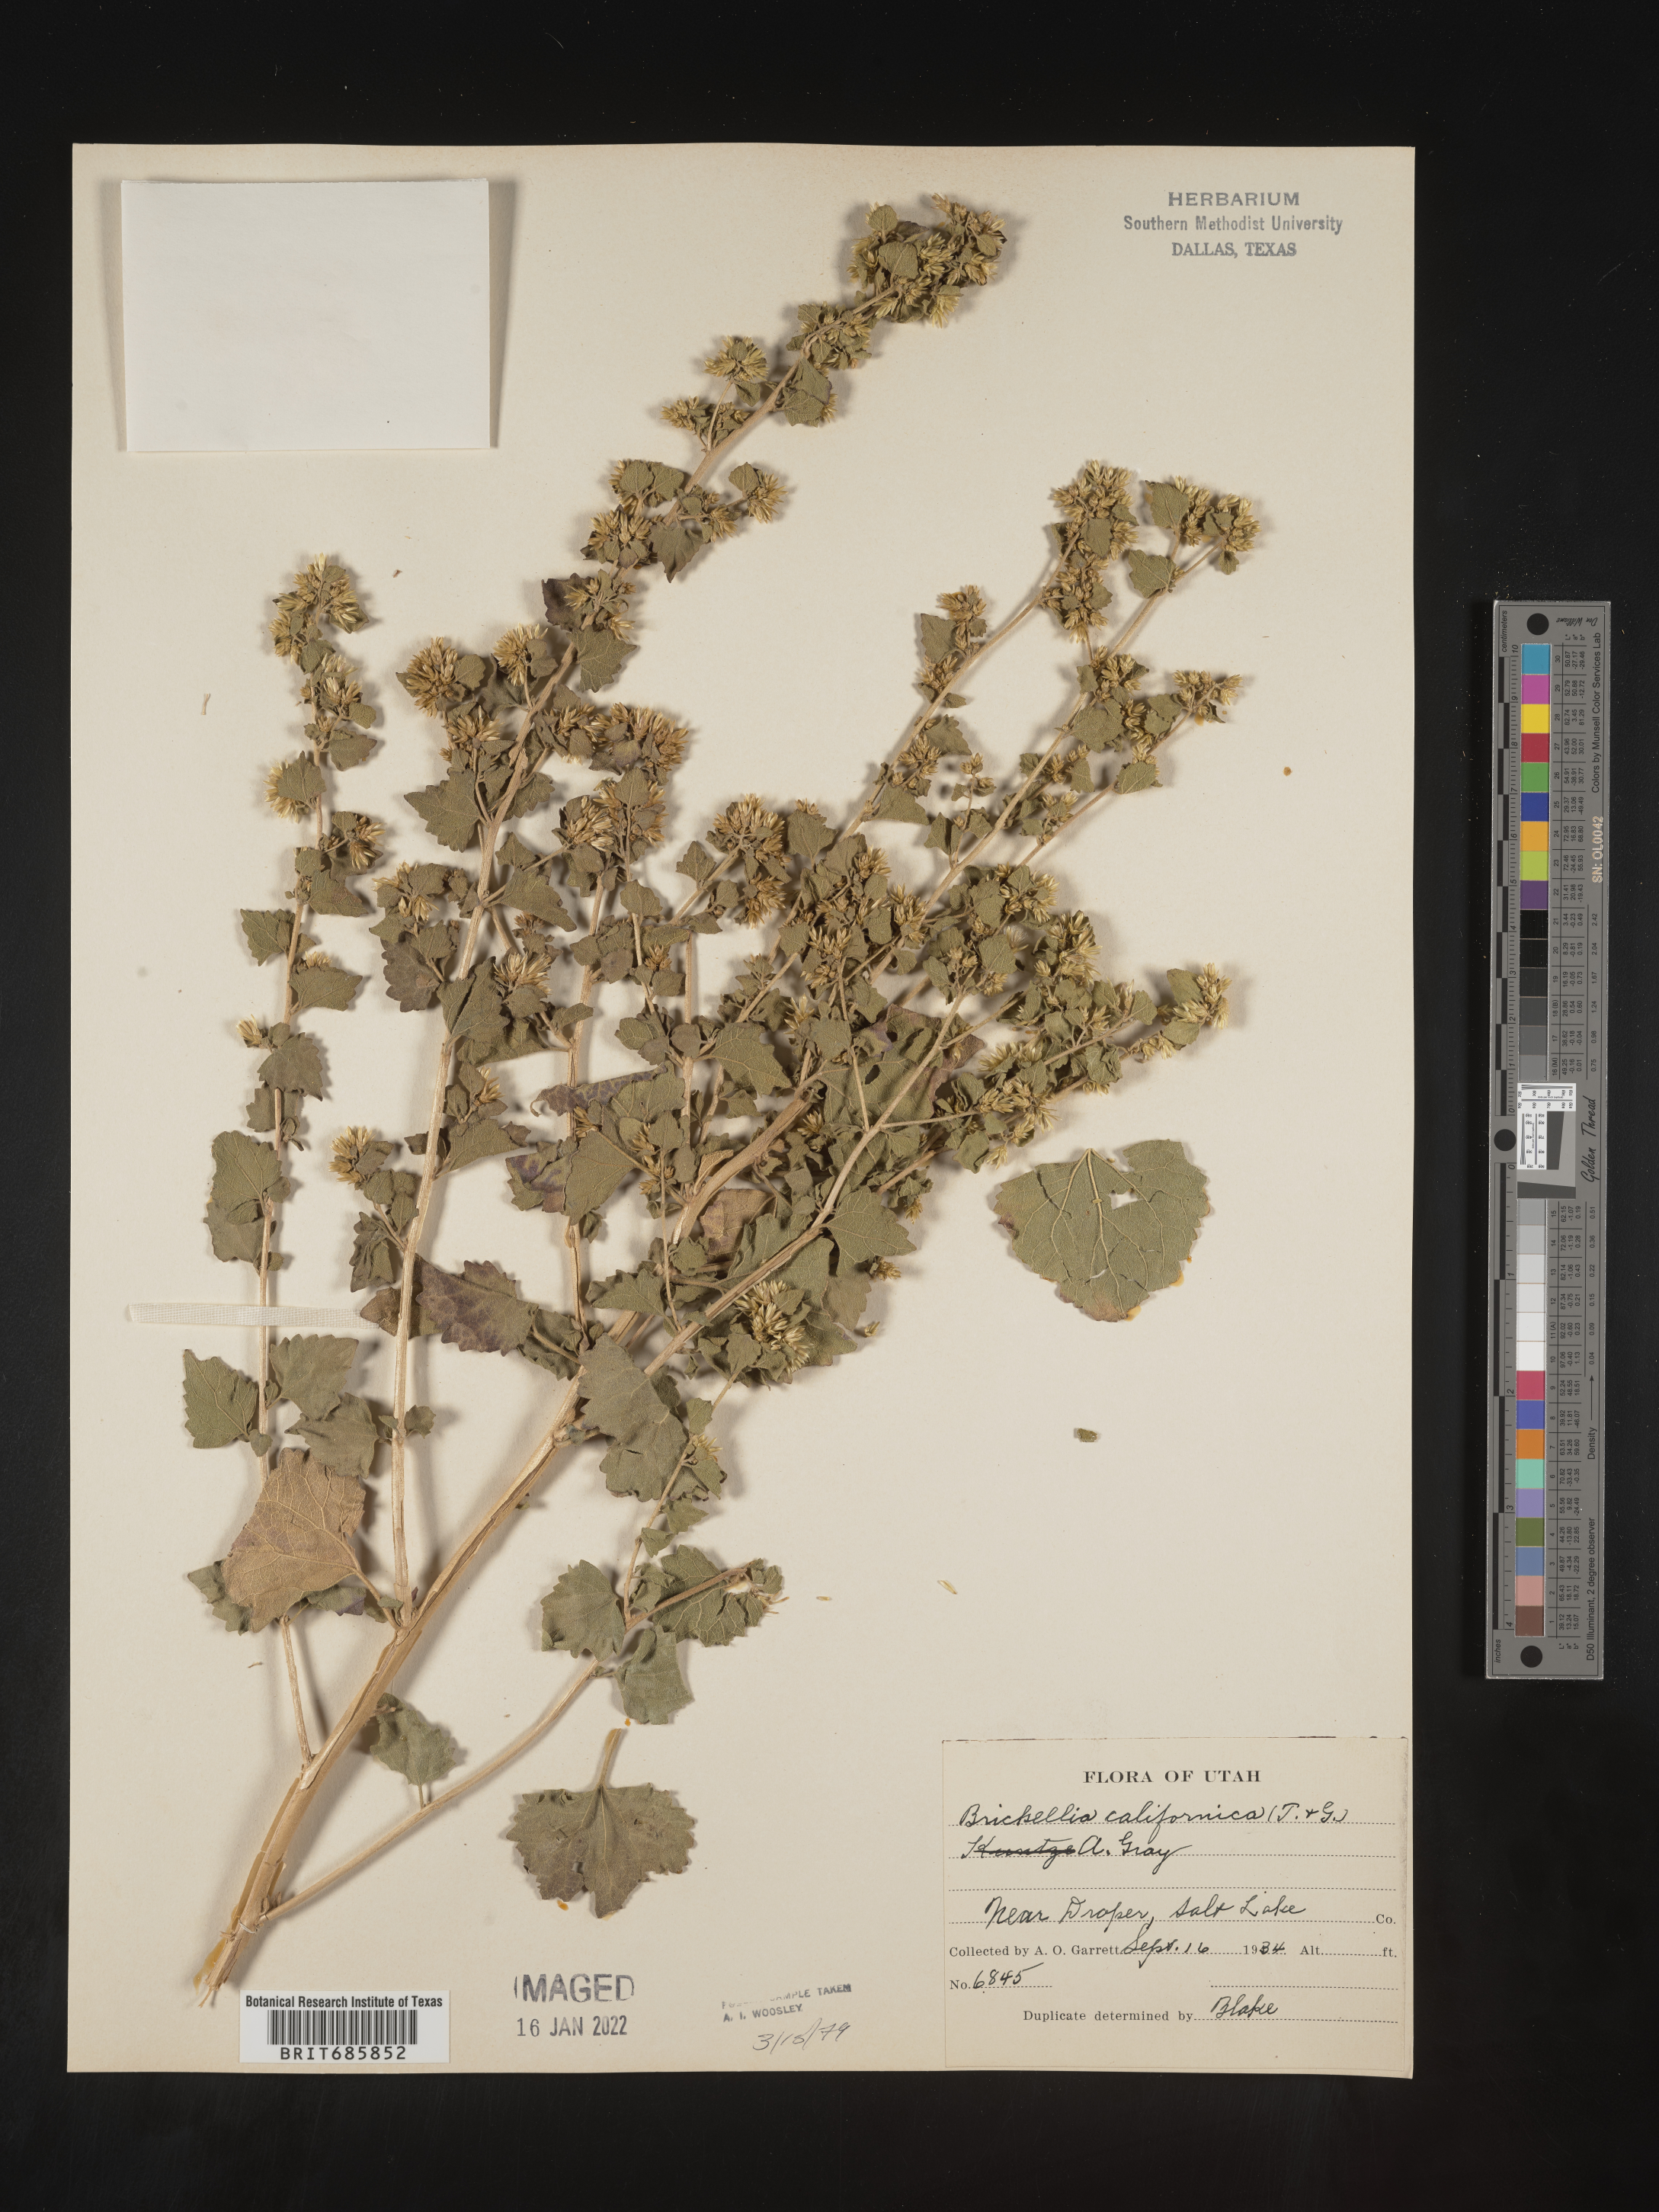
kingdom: Plantae
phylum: Tracheophyta
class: Magnoliopsida
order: Asterales
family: Asteraceae
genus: Brickellia
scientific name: Brickellia californica
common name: California brickellbush
